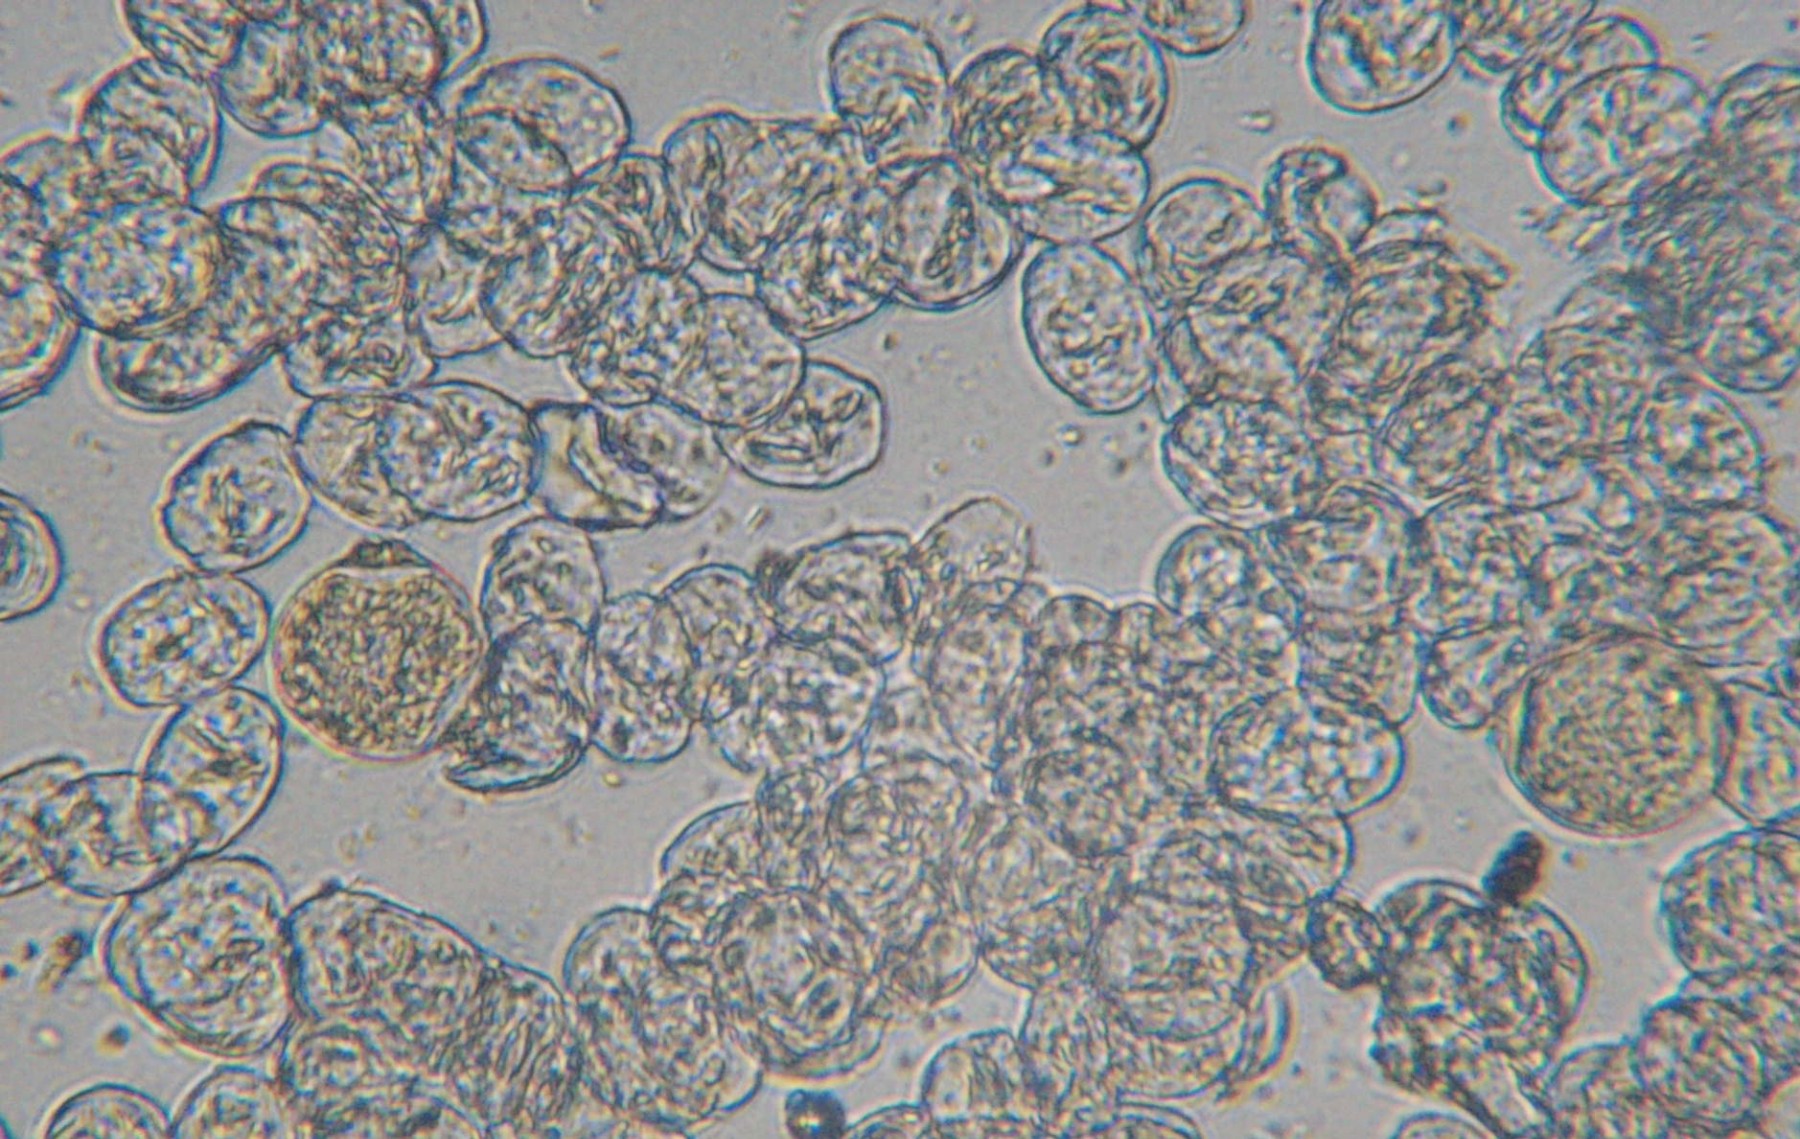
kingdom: Fungi
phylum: Ascomycota
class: Leotiomycetes
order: Helotiales
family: Erysiphaceae
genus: Podosphaera
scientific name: Podosphaera leucotricha
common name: æble-meldug
